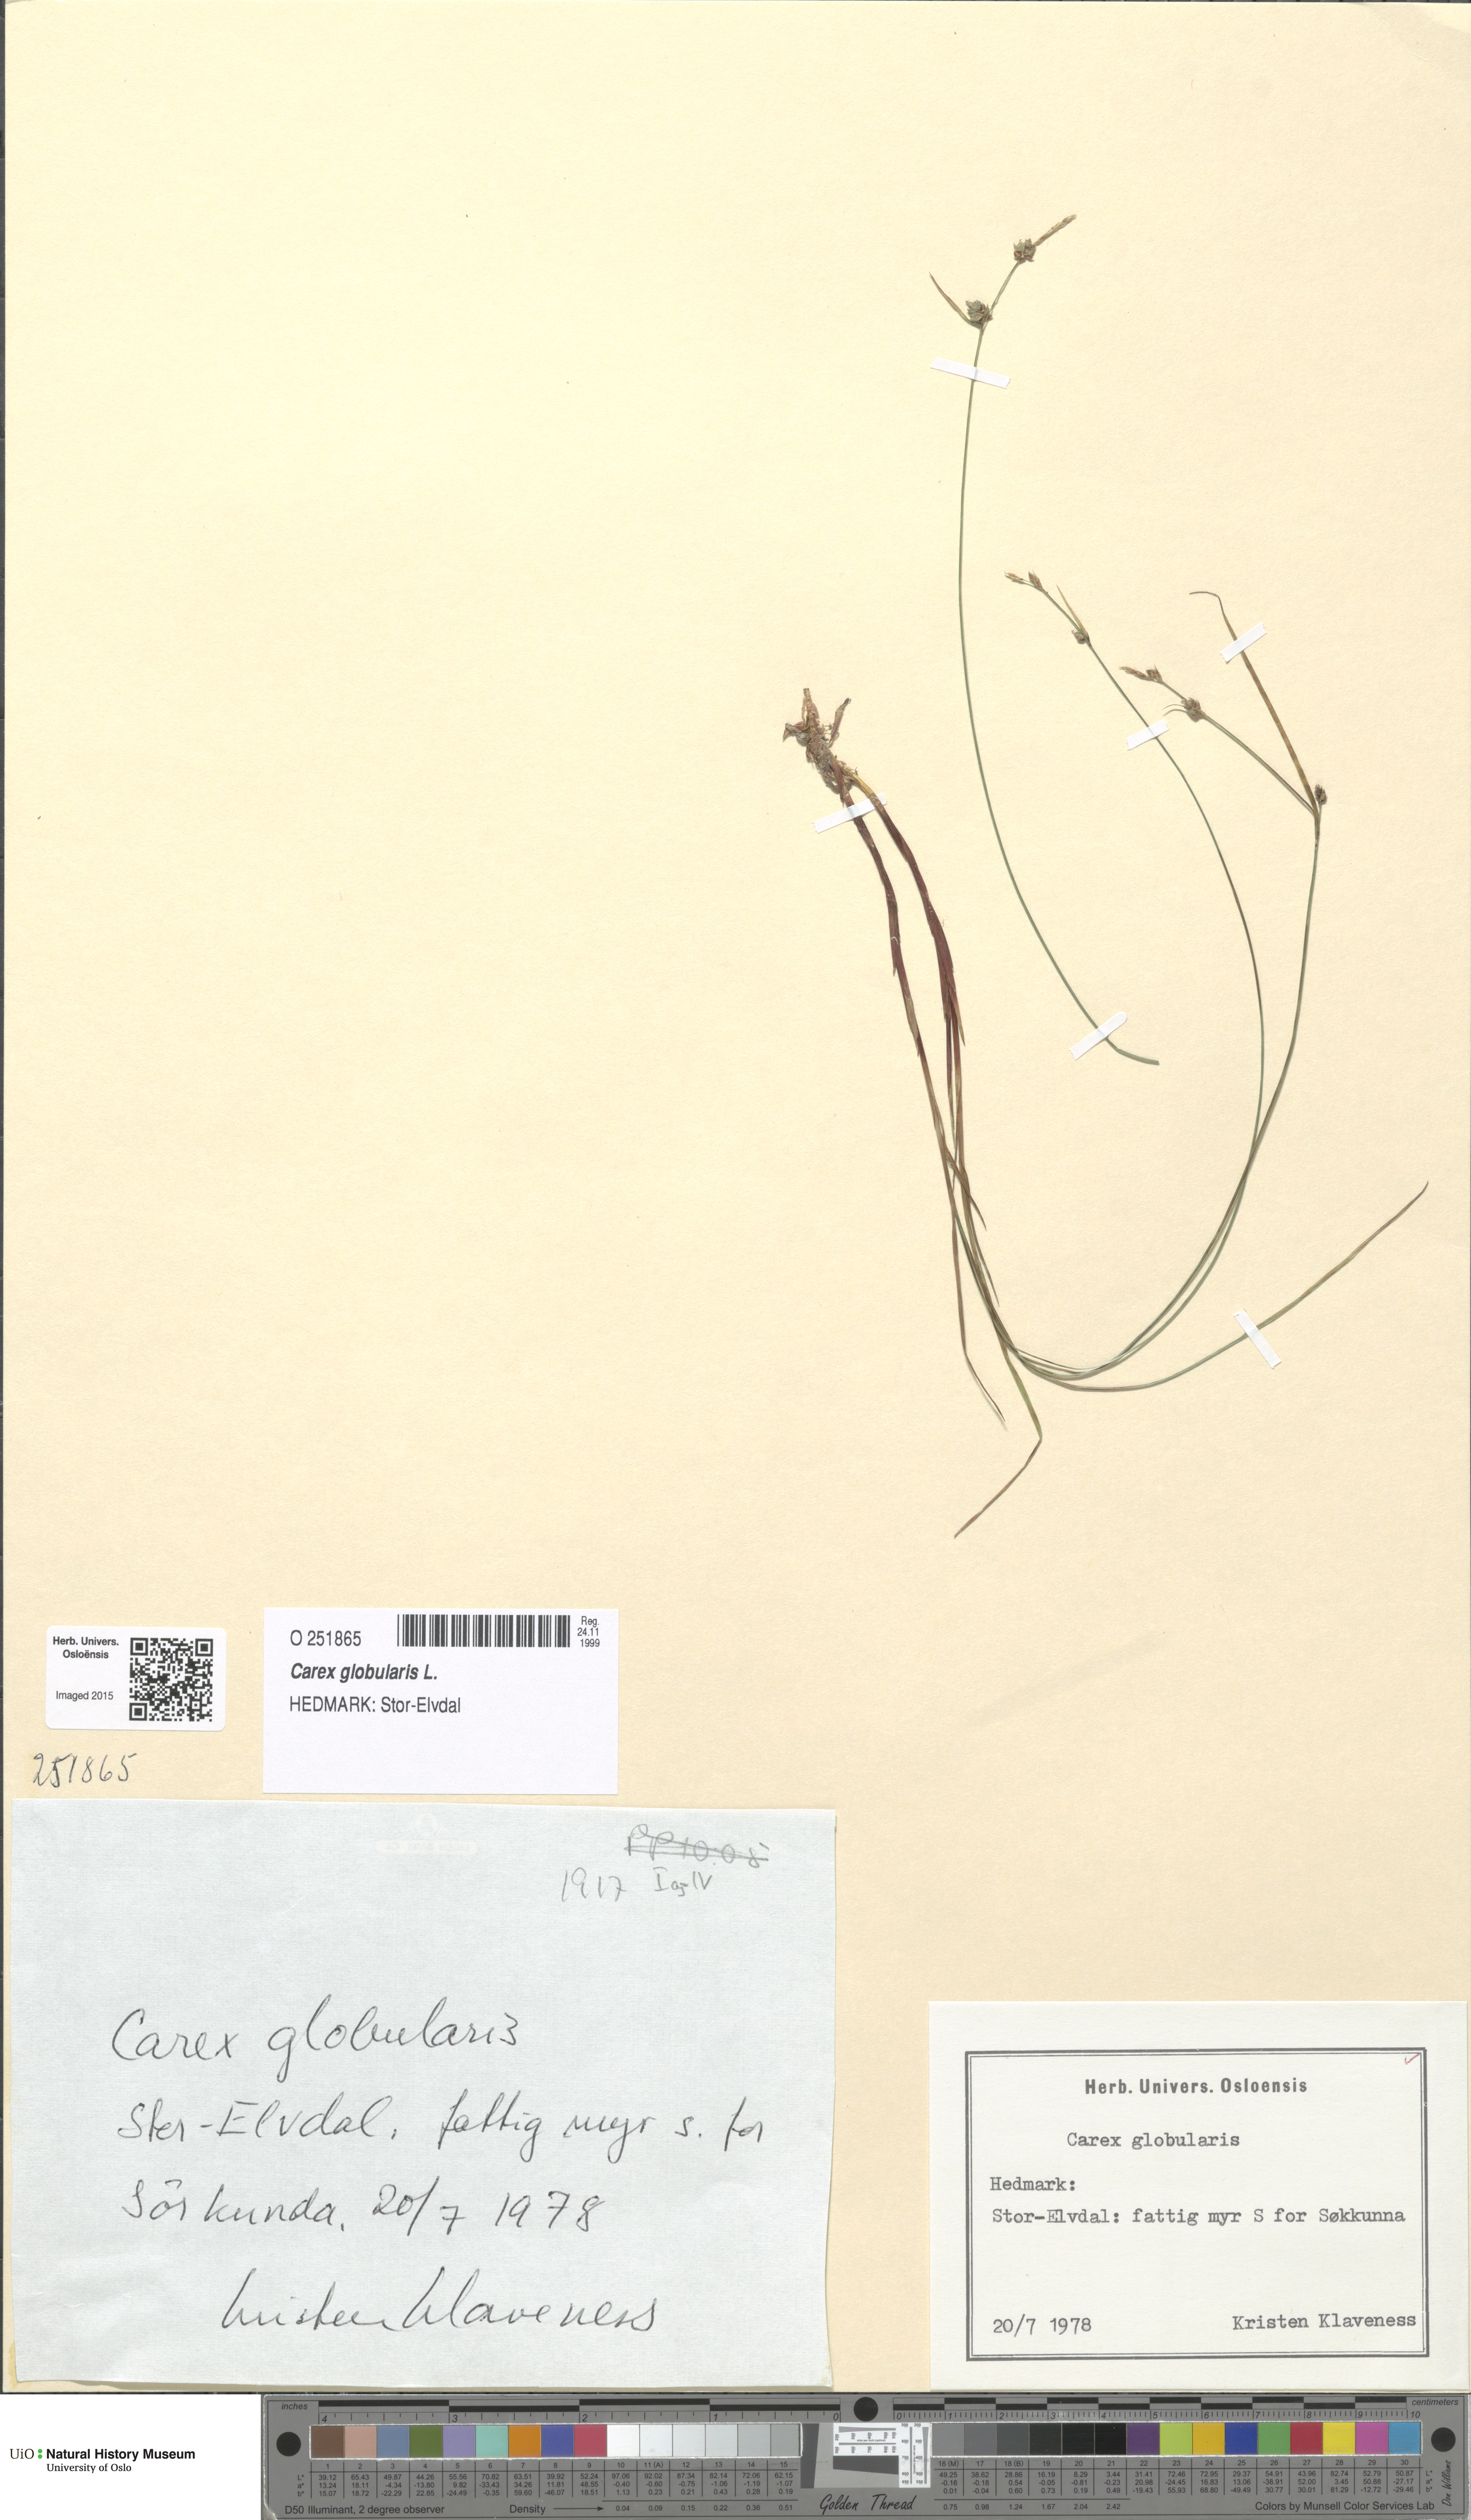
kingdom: Plantae
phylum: Tracheophyta
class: Liliopsida
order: Poales
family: Cyperaceae
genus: Carex
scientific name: Carex globularis
